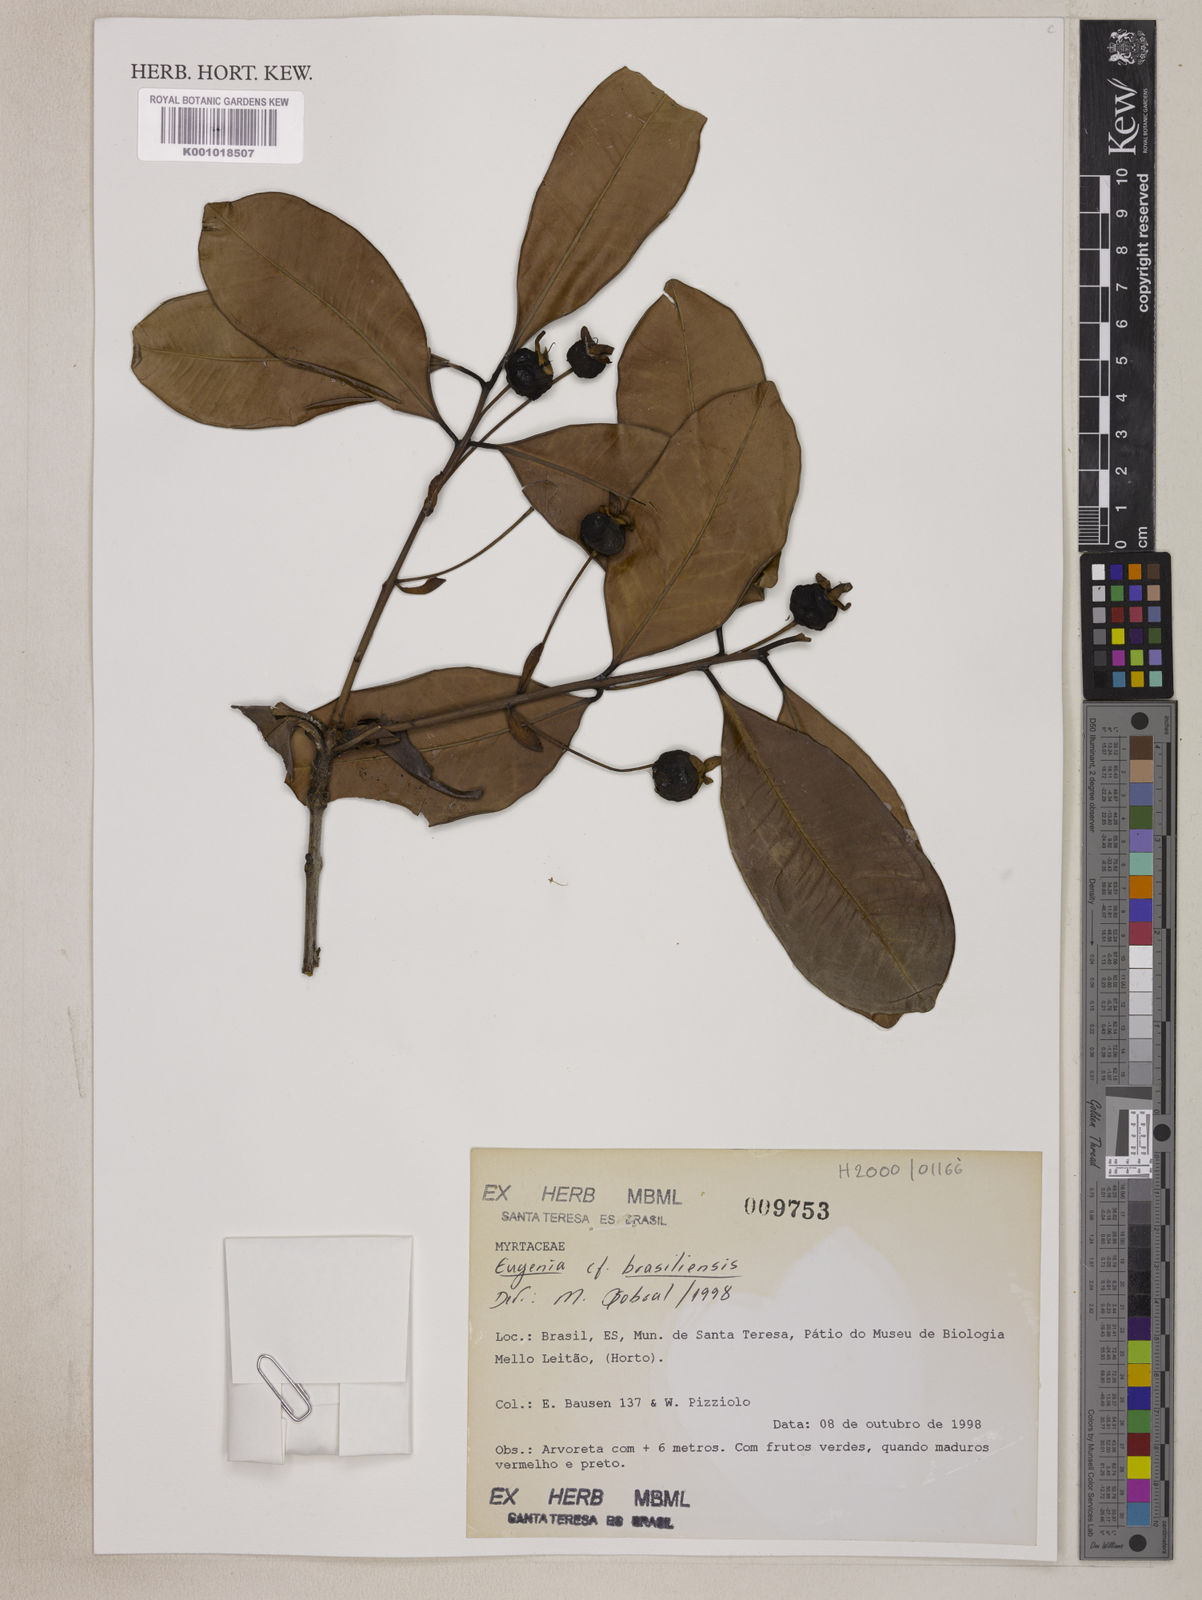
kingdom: Plantae
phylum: Tracheophyta
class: Magnoliopsida
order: Myrtales
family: Myrtaceae
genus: Eugenia
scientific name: Eugenia brasiliensis
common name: Grumichama
